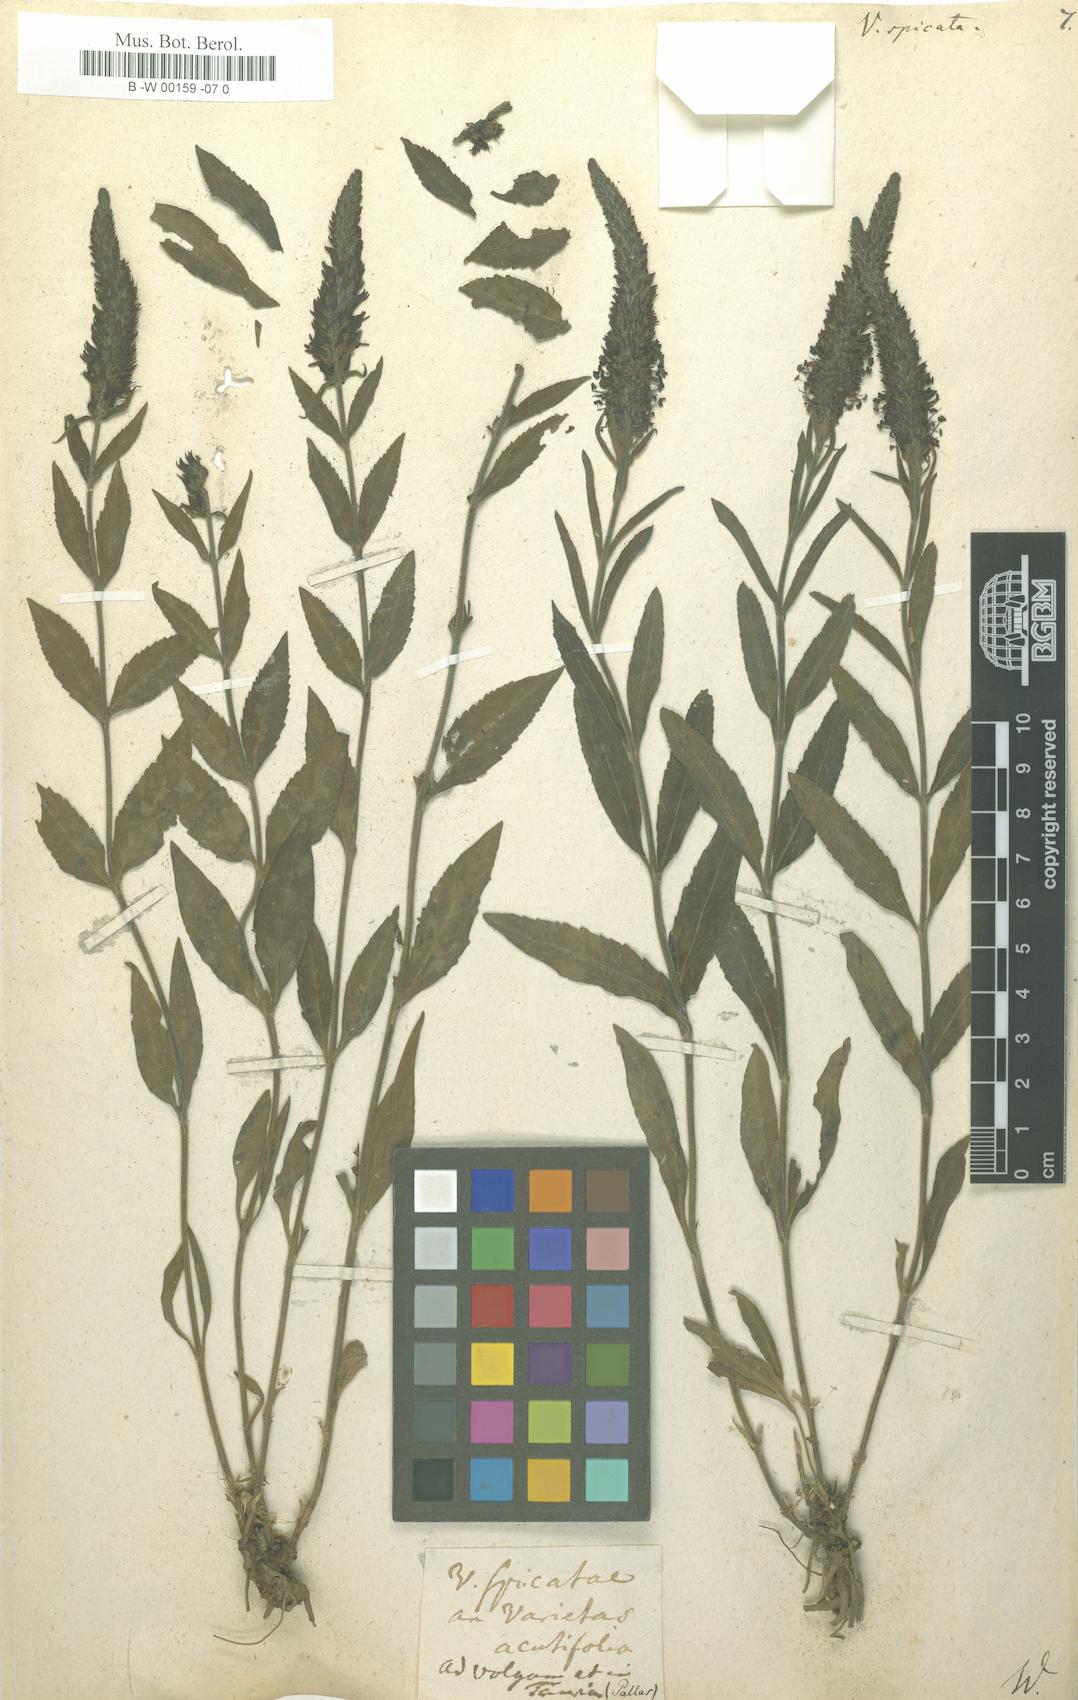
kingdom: Plantae
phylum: Tracheophyta
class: Magnoliopsida
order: Lamiales
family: Plantaginaceae
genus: Veronica
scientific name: Veronica spicata
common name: Spiked speedwell
